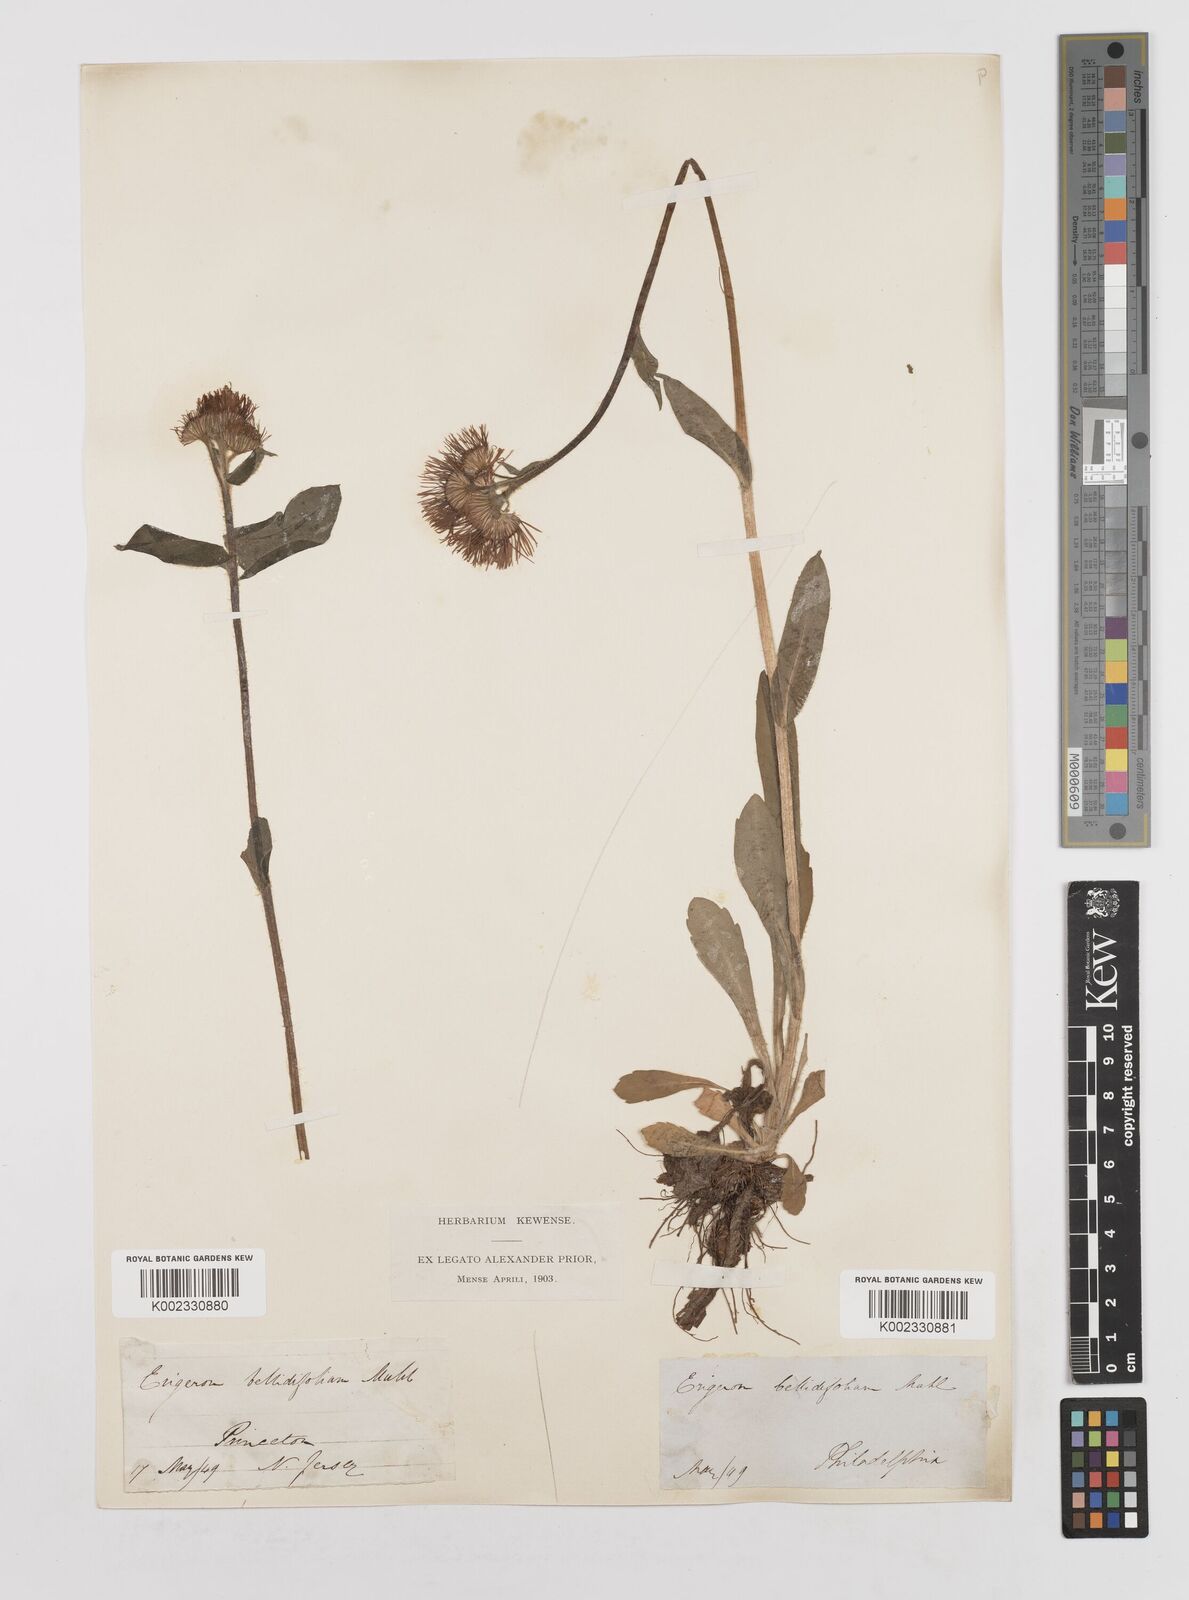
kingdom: Plantae
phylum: Tracheophyta
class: Magnoliopsida
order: Asterales
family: Asteraceae
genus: Erigeron
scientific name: Erigeron pulchellus
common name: Hairy fleabane
